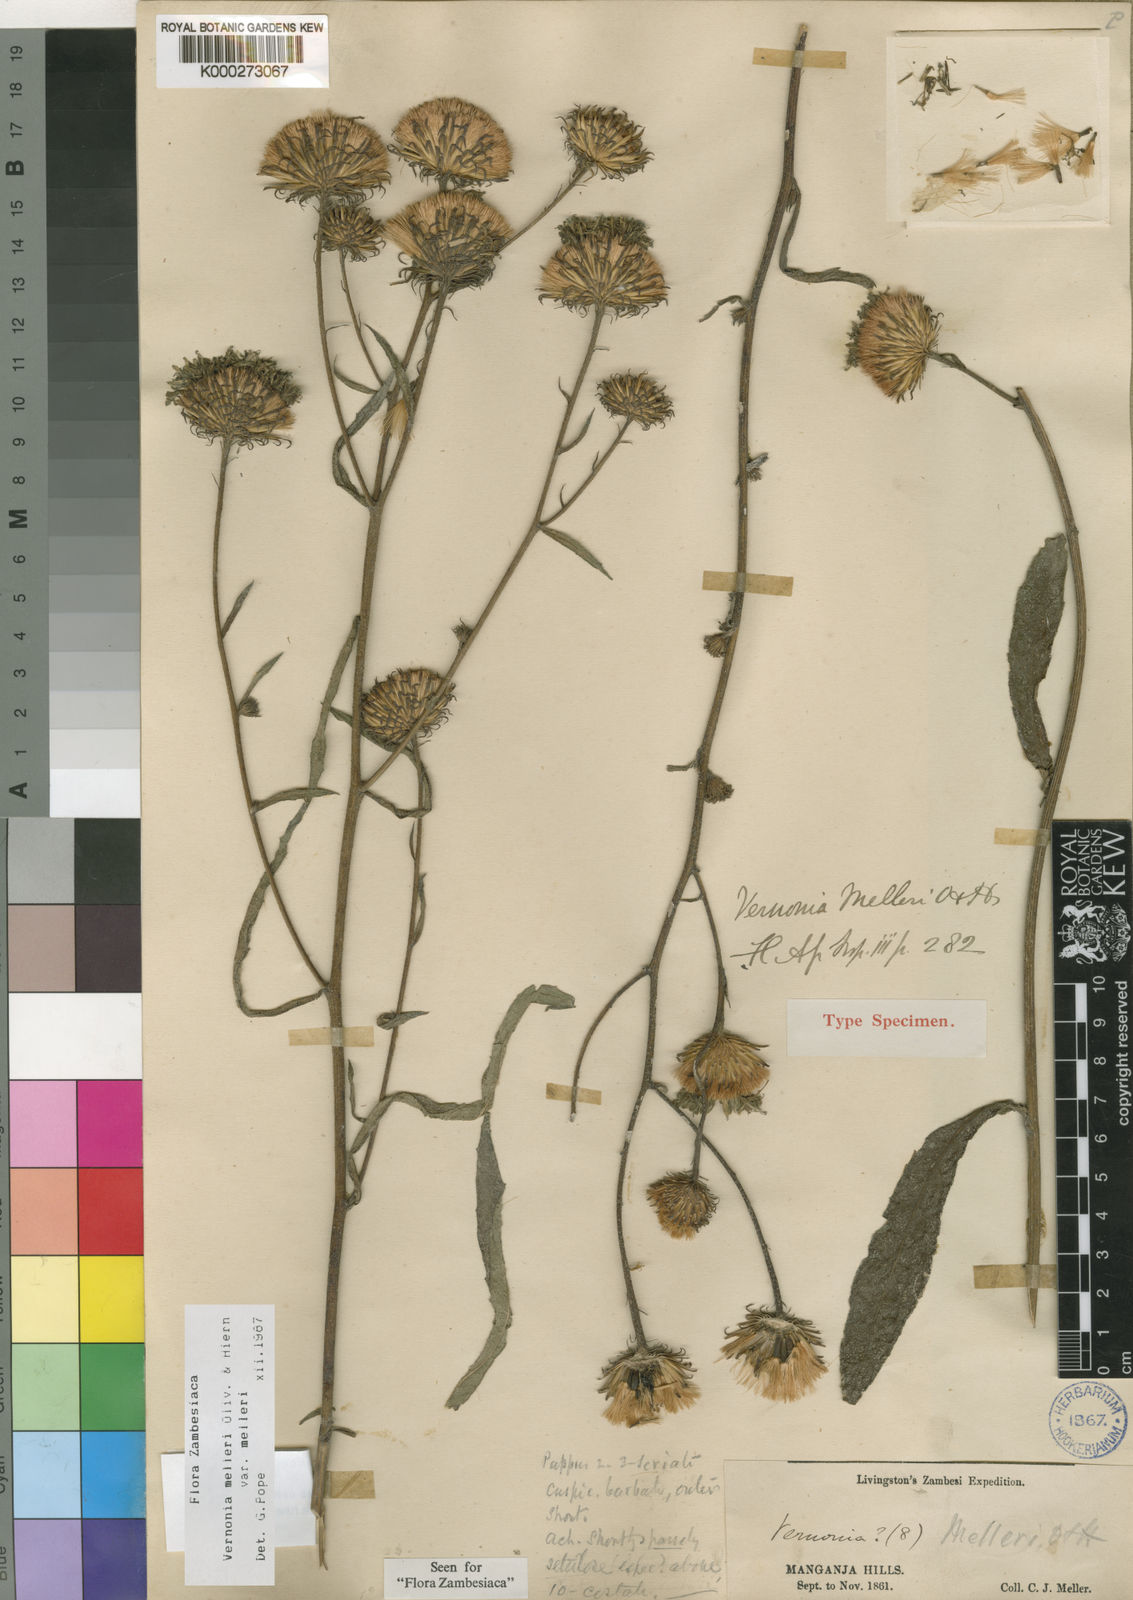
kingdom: Plantae
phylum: Tracheophyta
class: Magnoliopsida
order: Asterales
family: Asteraceae
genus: Linzia
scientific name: Linzia melleri
